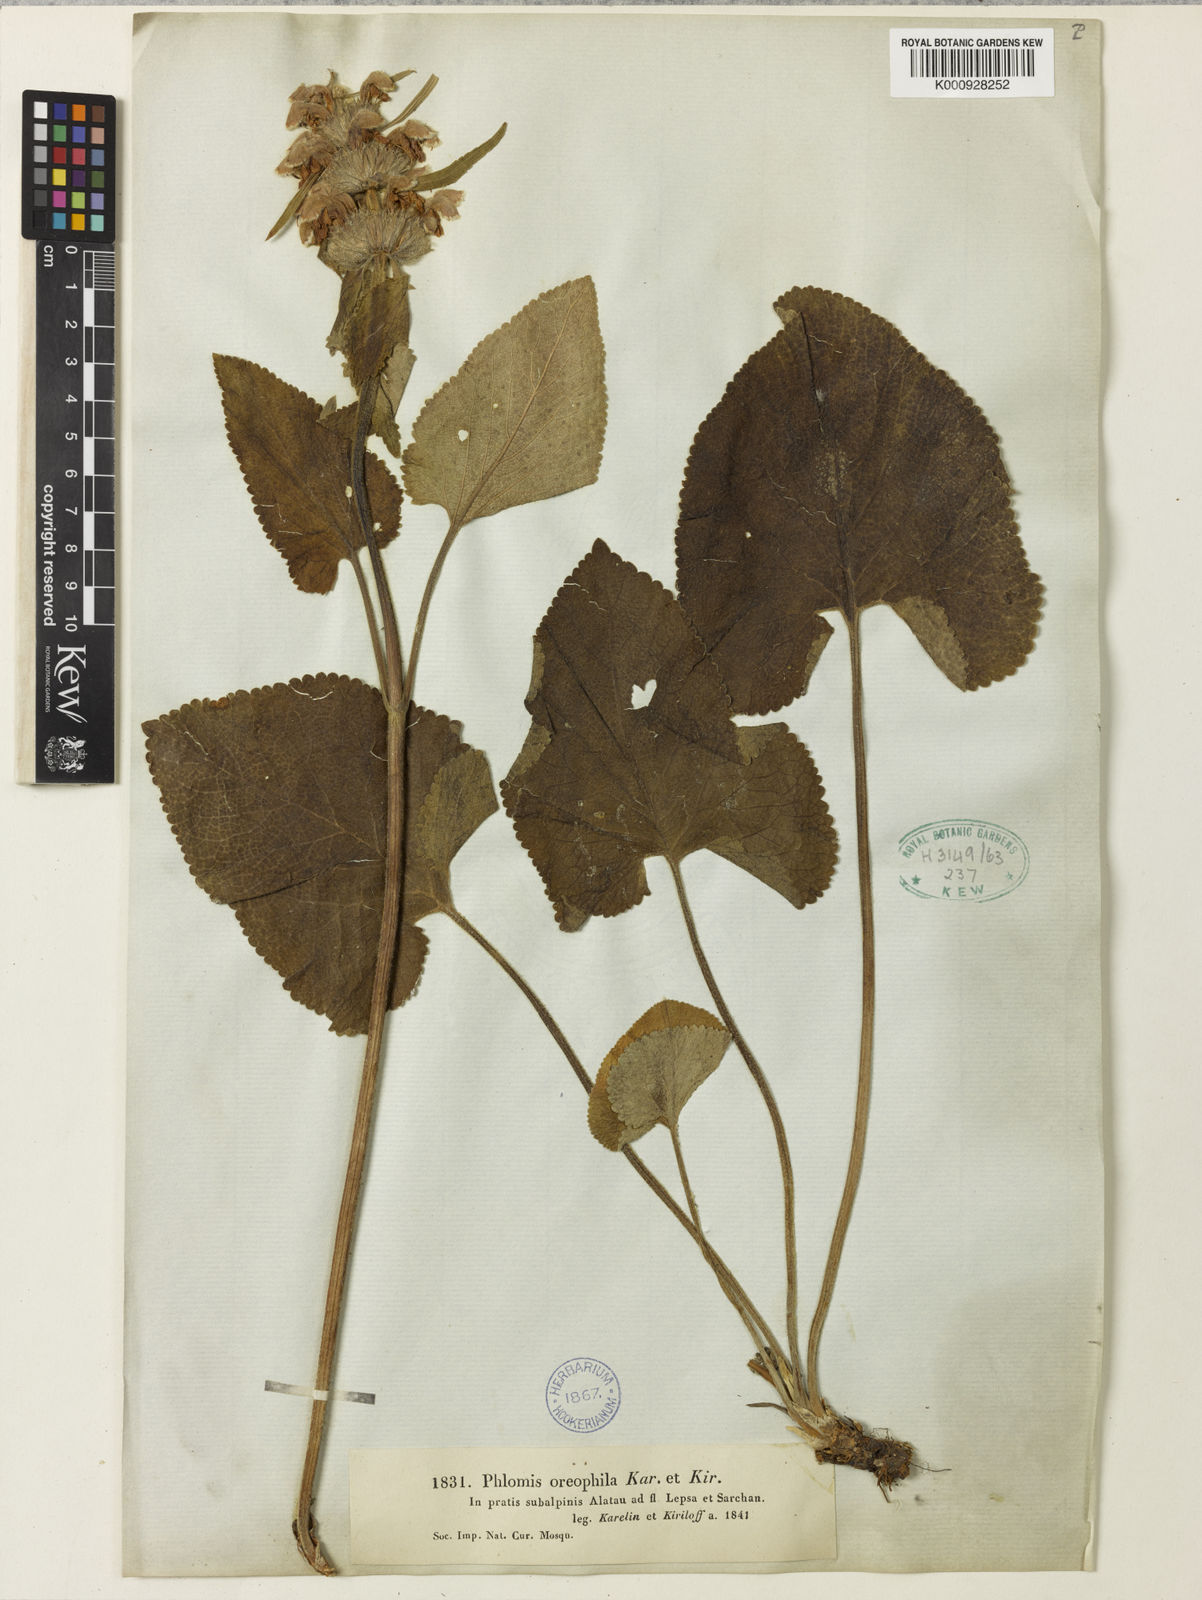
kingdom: Plantae
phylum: Tracheophyta
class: Magnoliopsida
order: Lamiales
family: Lamiaceae
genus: Phlomoides
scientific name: Phlomoides oreophila
